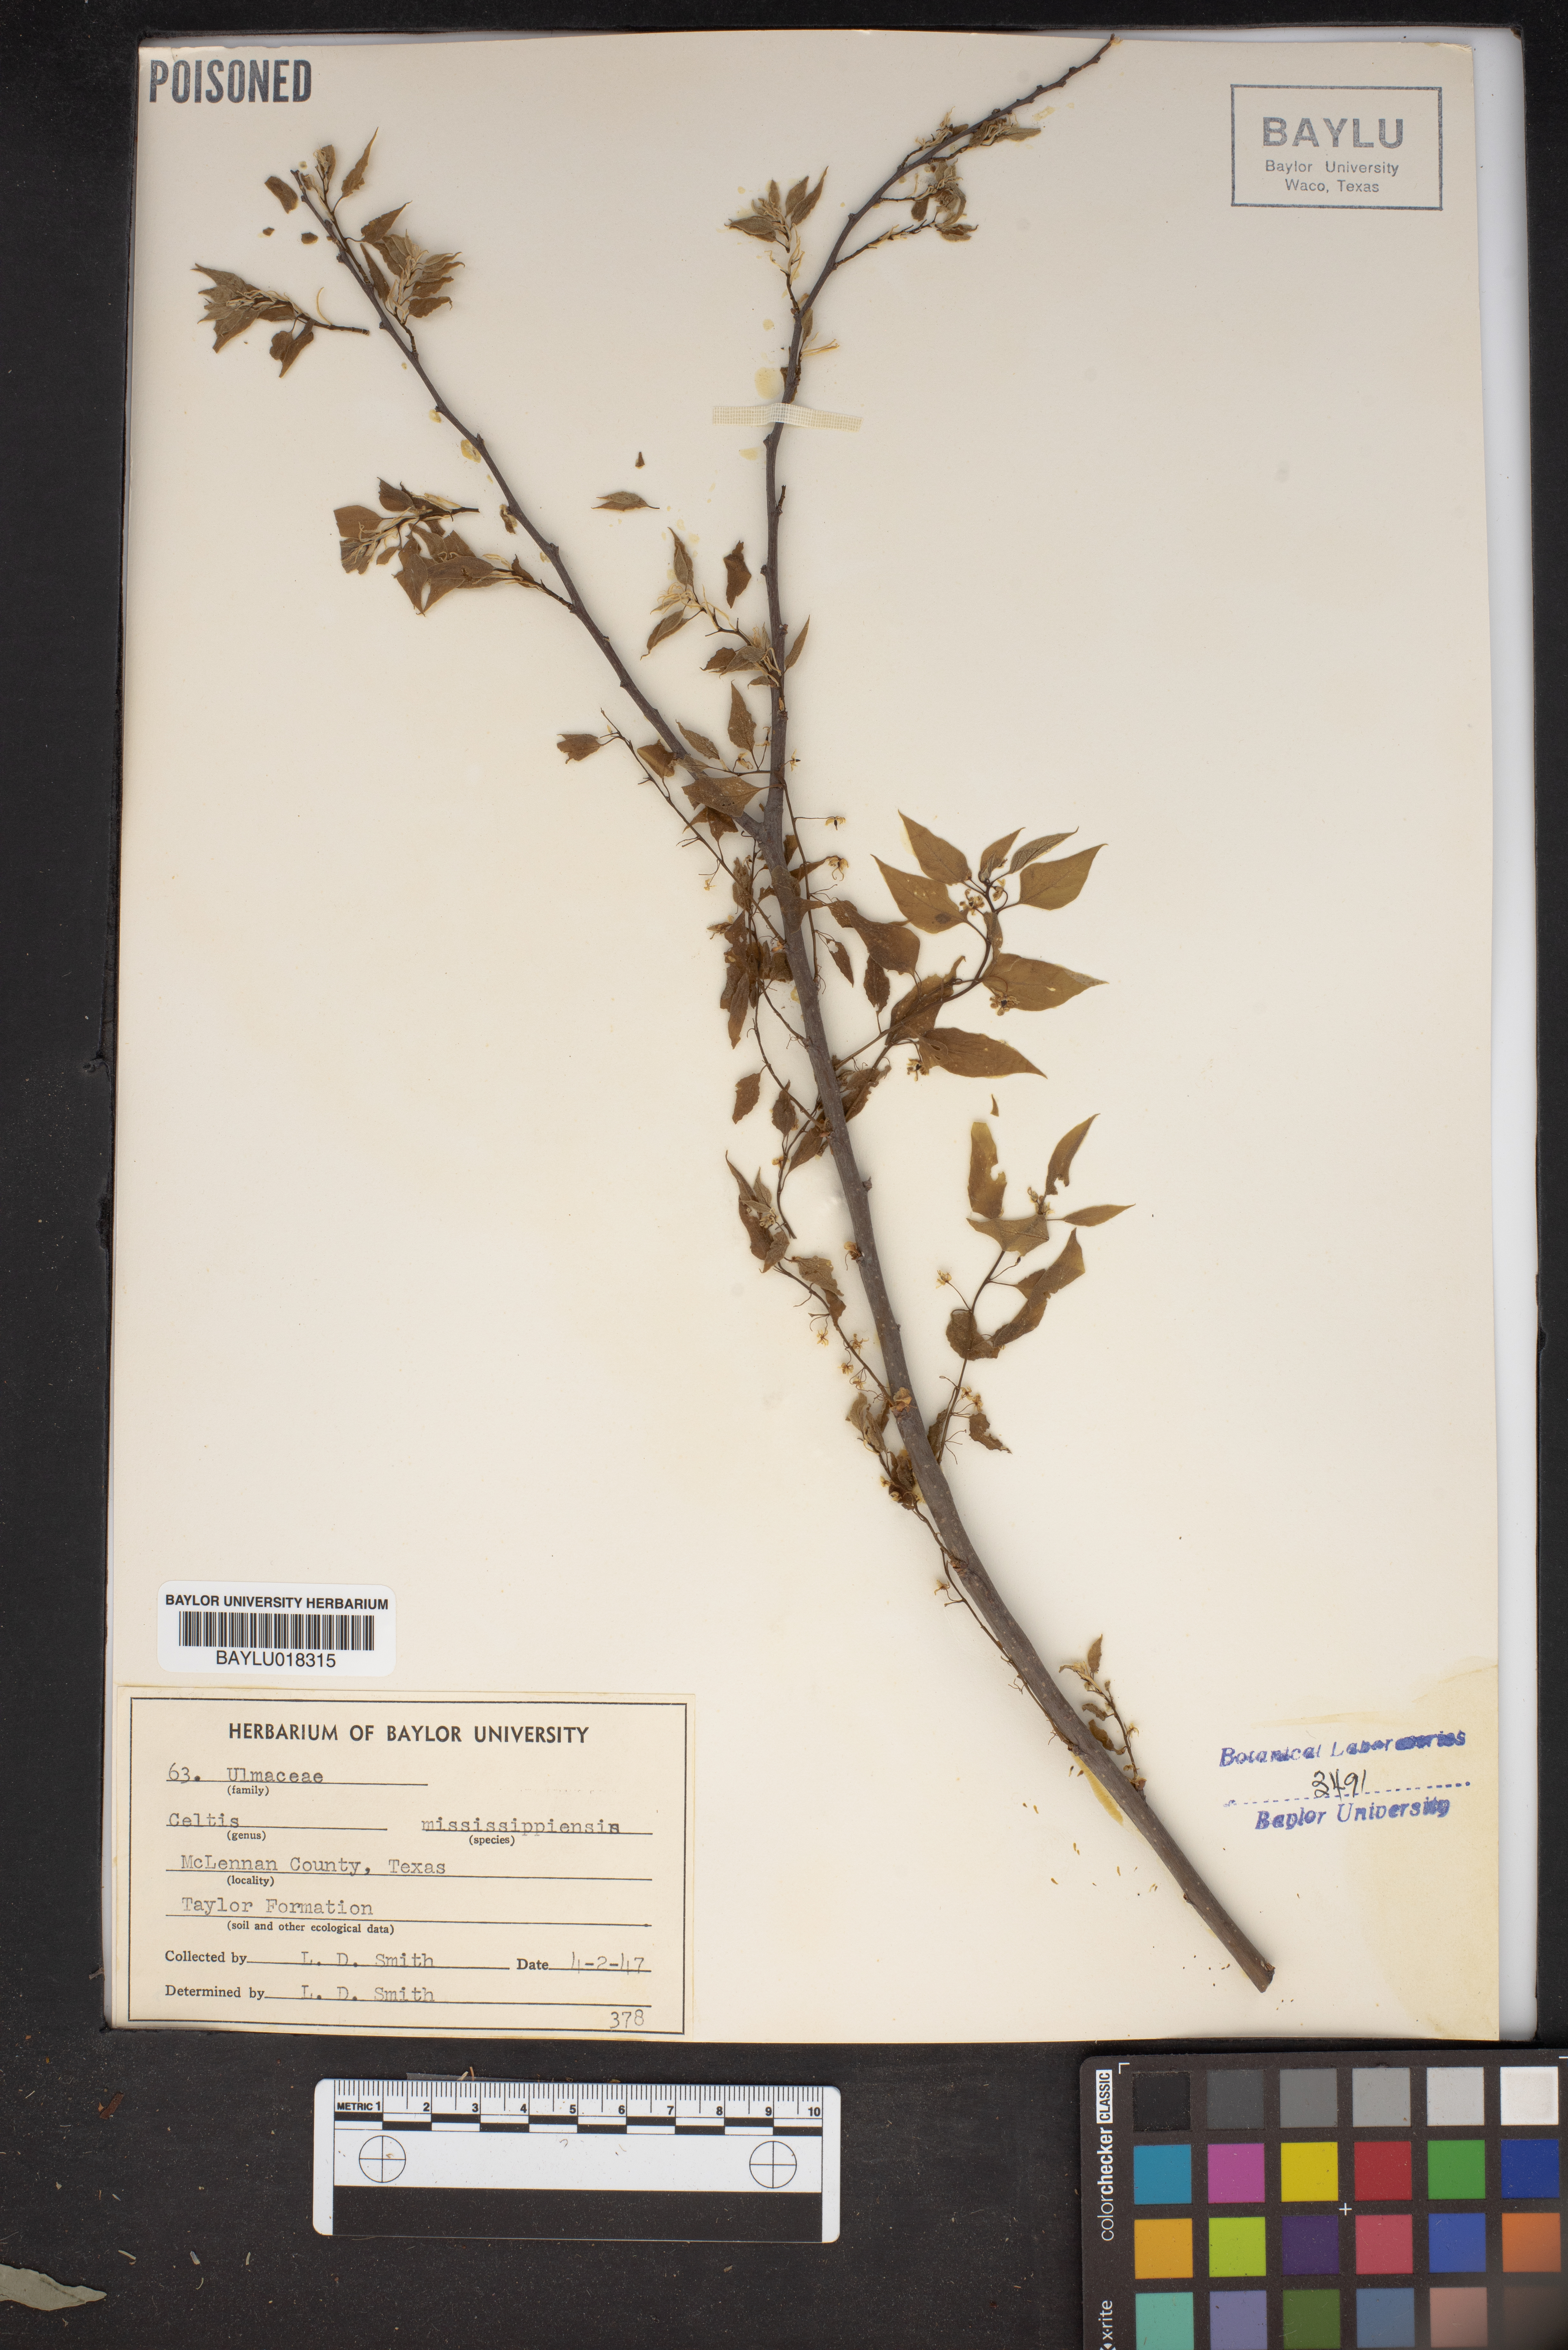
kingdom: Plantae
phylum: Tracheophyta
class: Magnoliopsida
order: Rosales
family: Cannabaceae
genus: Celtis
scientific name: Celtis
